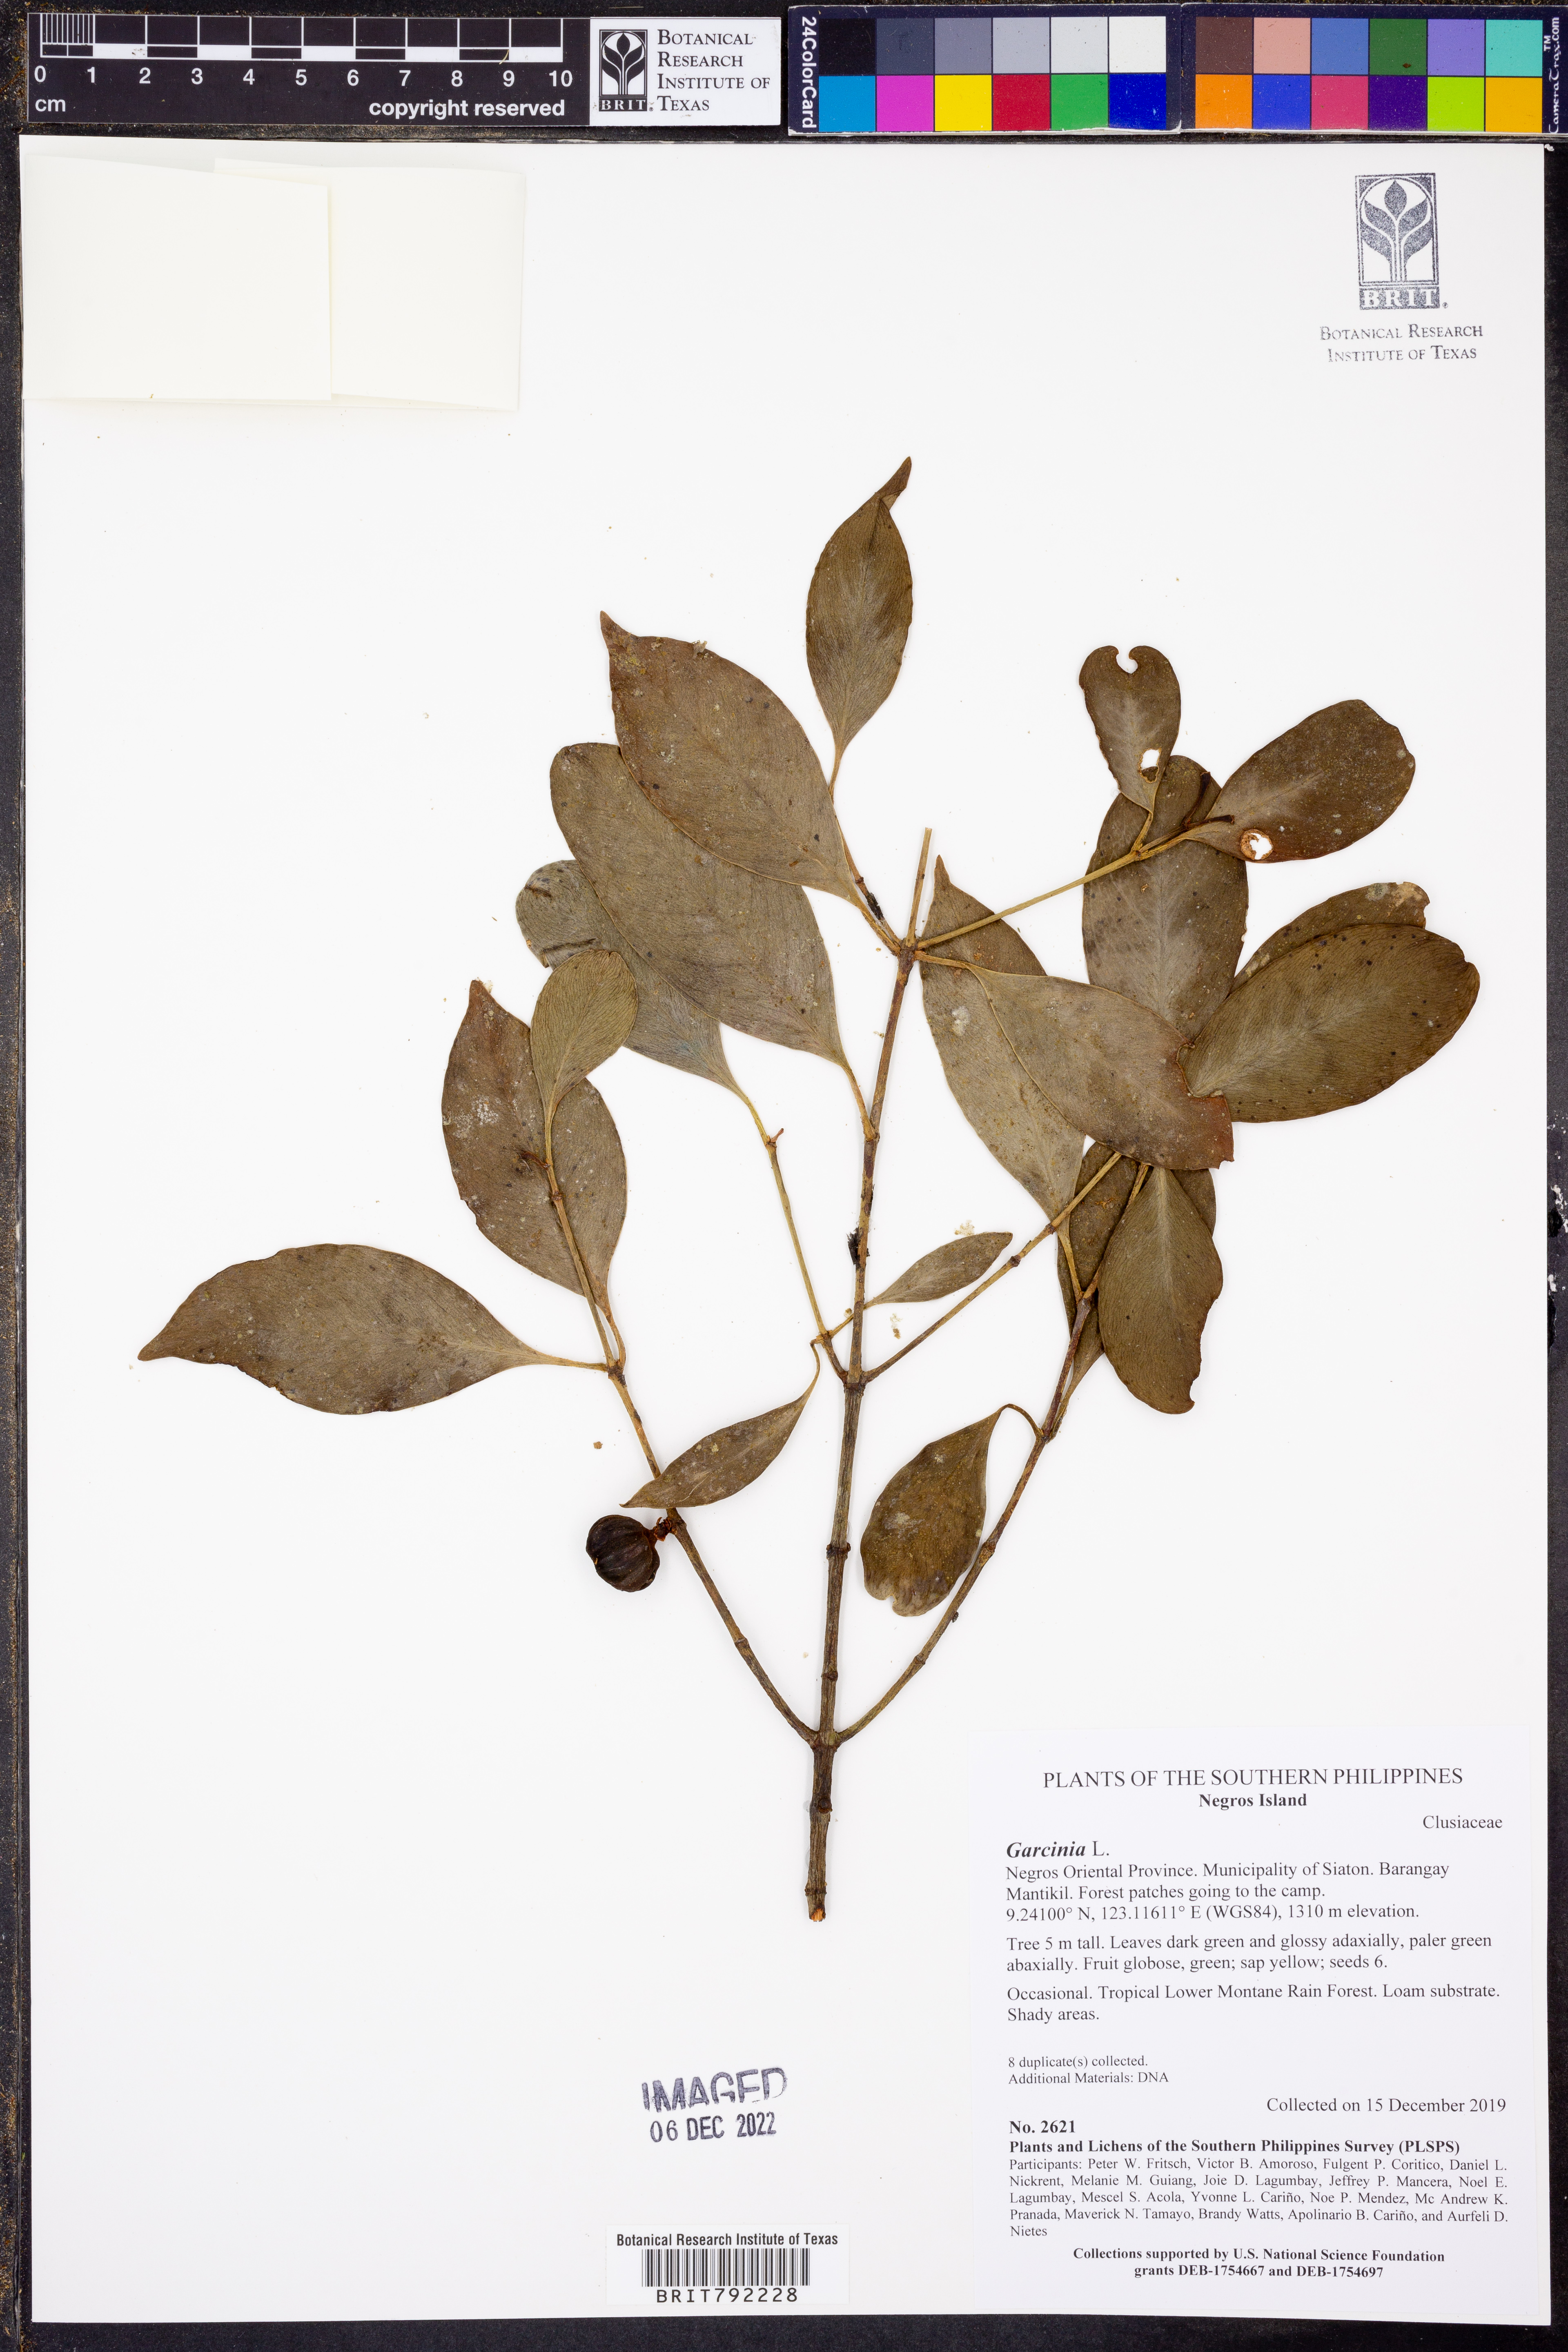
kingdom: Plantae
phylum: Tracheophyta
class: Magnoliopsida
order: Malpighiales
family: Clusiaceae
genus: Garcinia
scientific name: Garcinia
